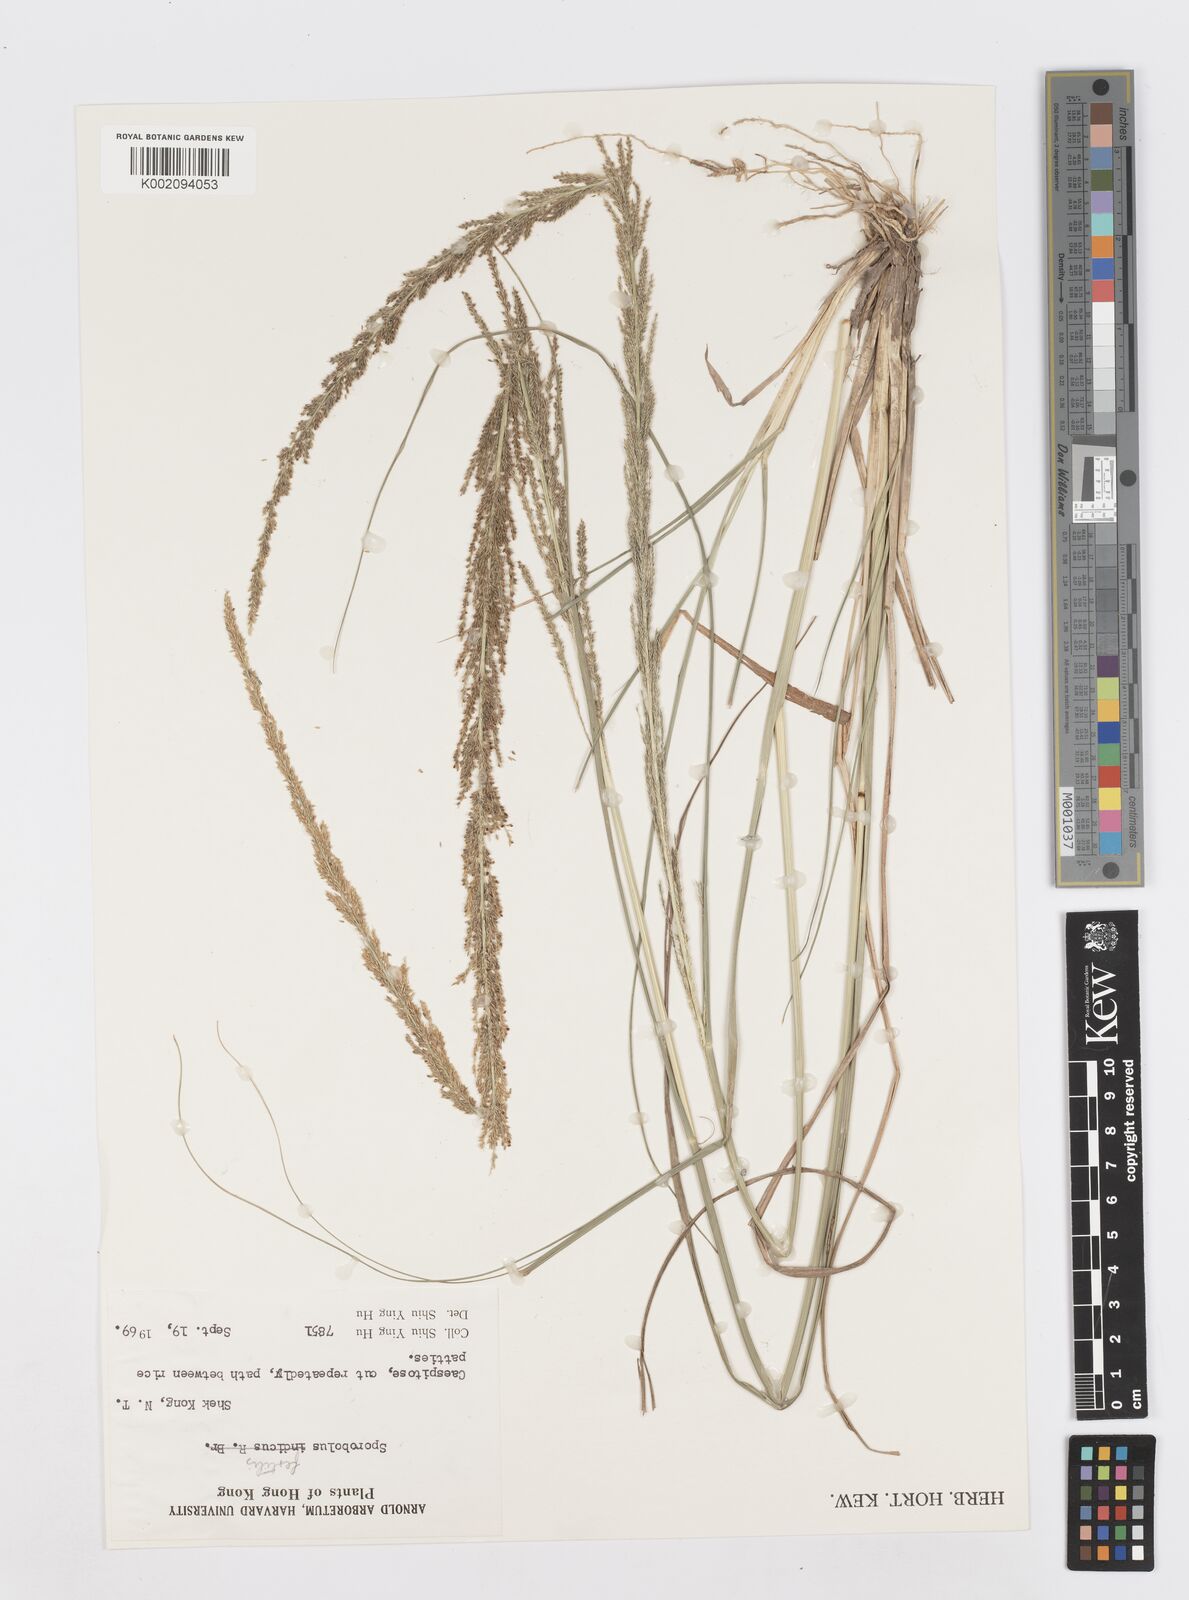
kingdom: Plantae
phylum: Tracheophyta
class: Liliopsida
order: Poales
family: Poaceae
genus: Sporobolus
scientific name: Sporobolus fertilis
